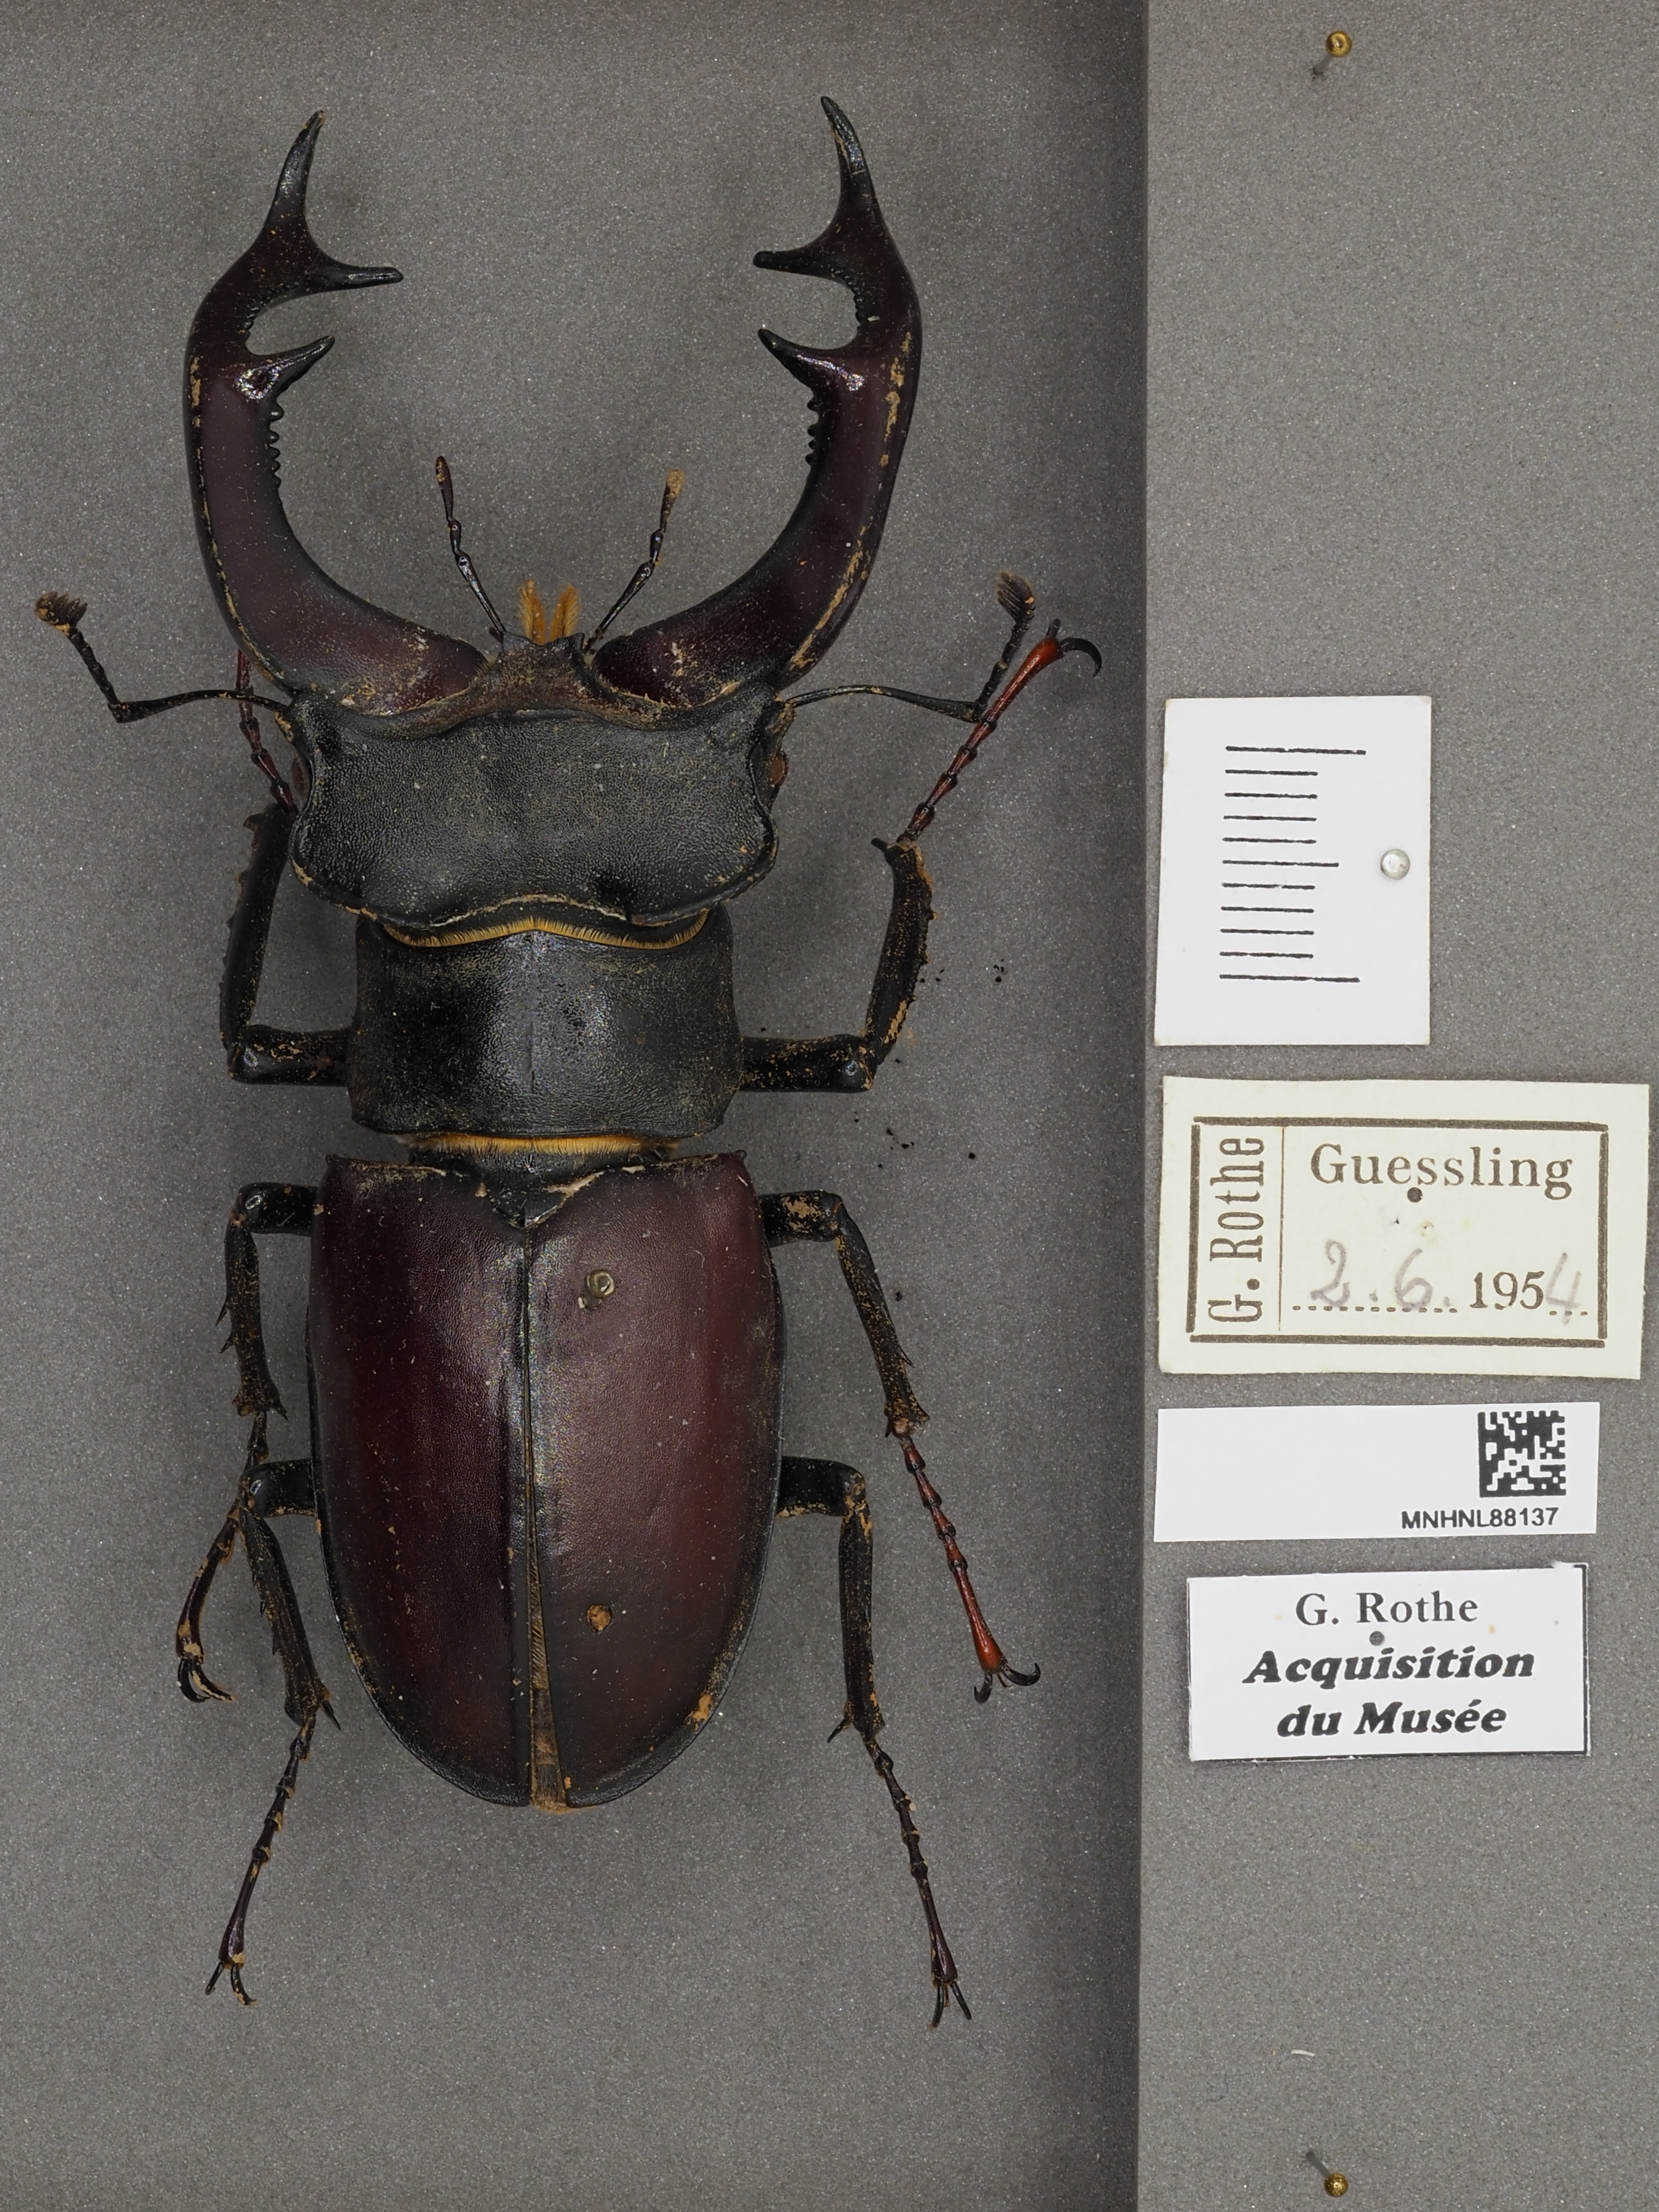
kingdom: Animalia
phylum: Arthropoda
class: Insecta
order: Coleoptera
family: Lucanidae
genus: Lucanus
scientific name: Lucanus cervus
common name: Stag beetle
